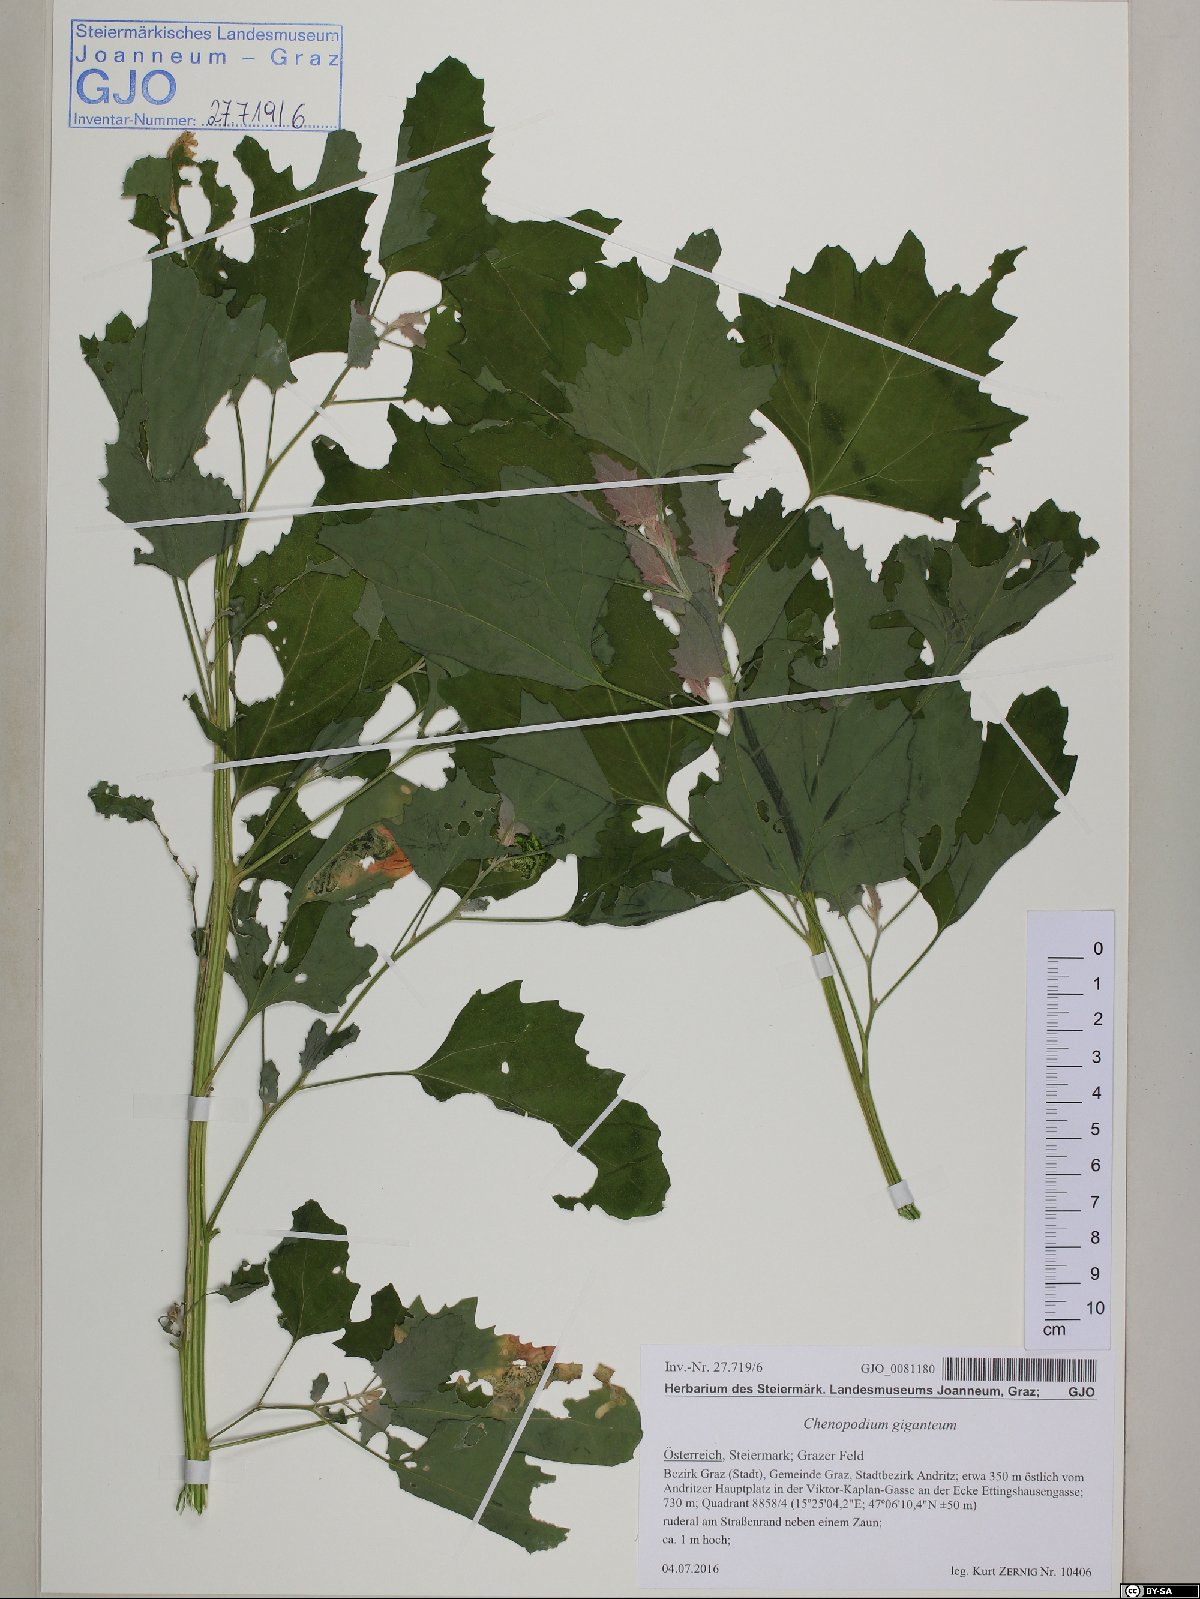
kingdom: Plantae
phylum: Tracheophyta
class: Magnoliopsida
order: Caryophyllales
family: Amaranthaceae
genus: Chenopodium
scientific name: Chenopodium giganteum
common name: Magentaspreen
